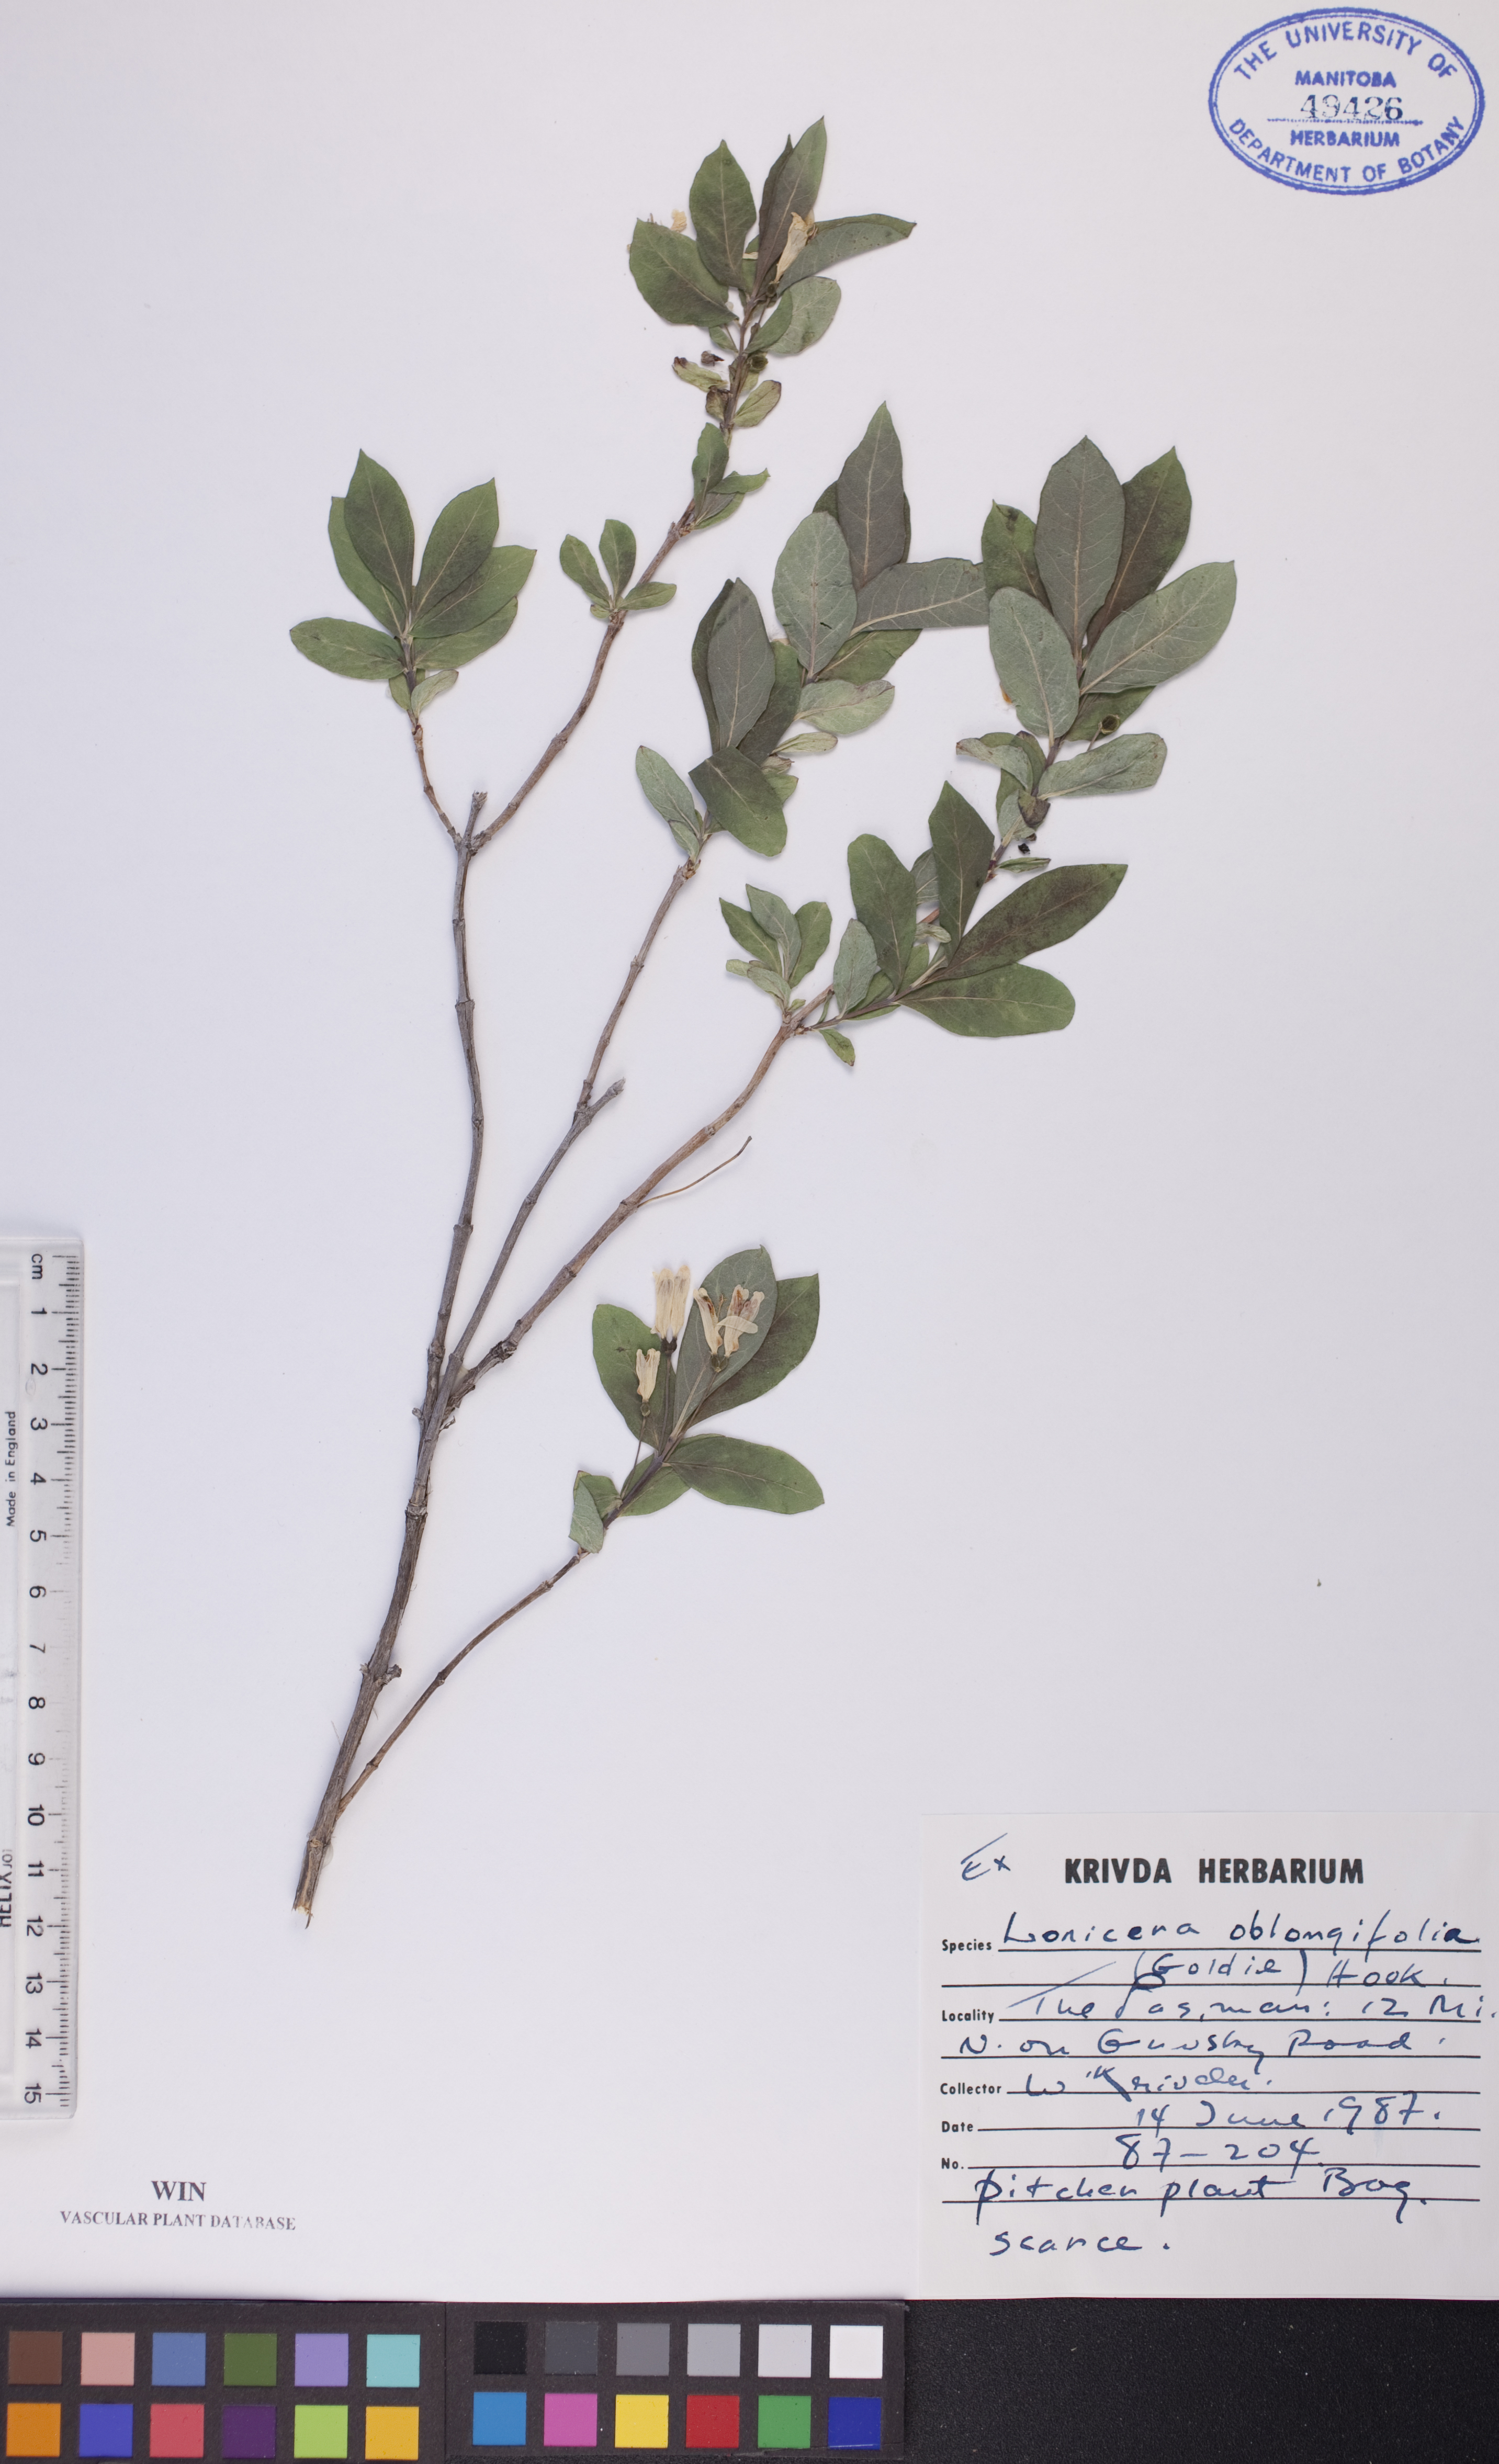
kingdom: Plantae
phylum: Tracheophyta
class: Magnoliopsida
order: Dipsacales
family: Caprifoliaceae
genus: Lonicera
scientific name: Lonicera oblongifolia
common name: Swamp fly honeysuckle
